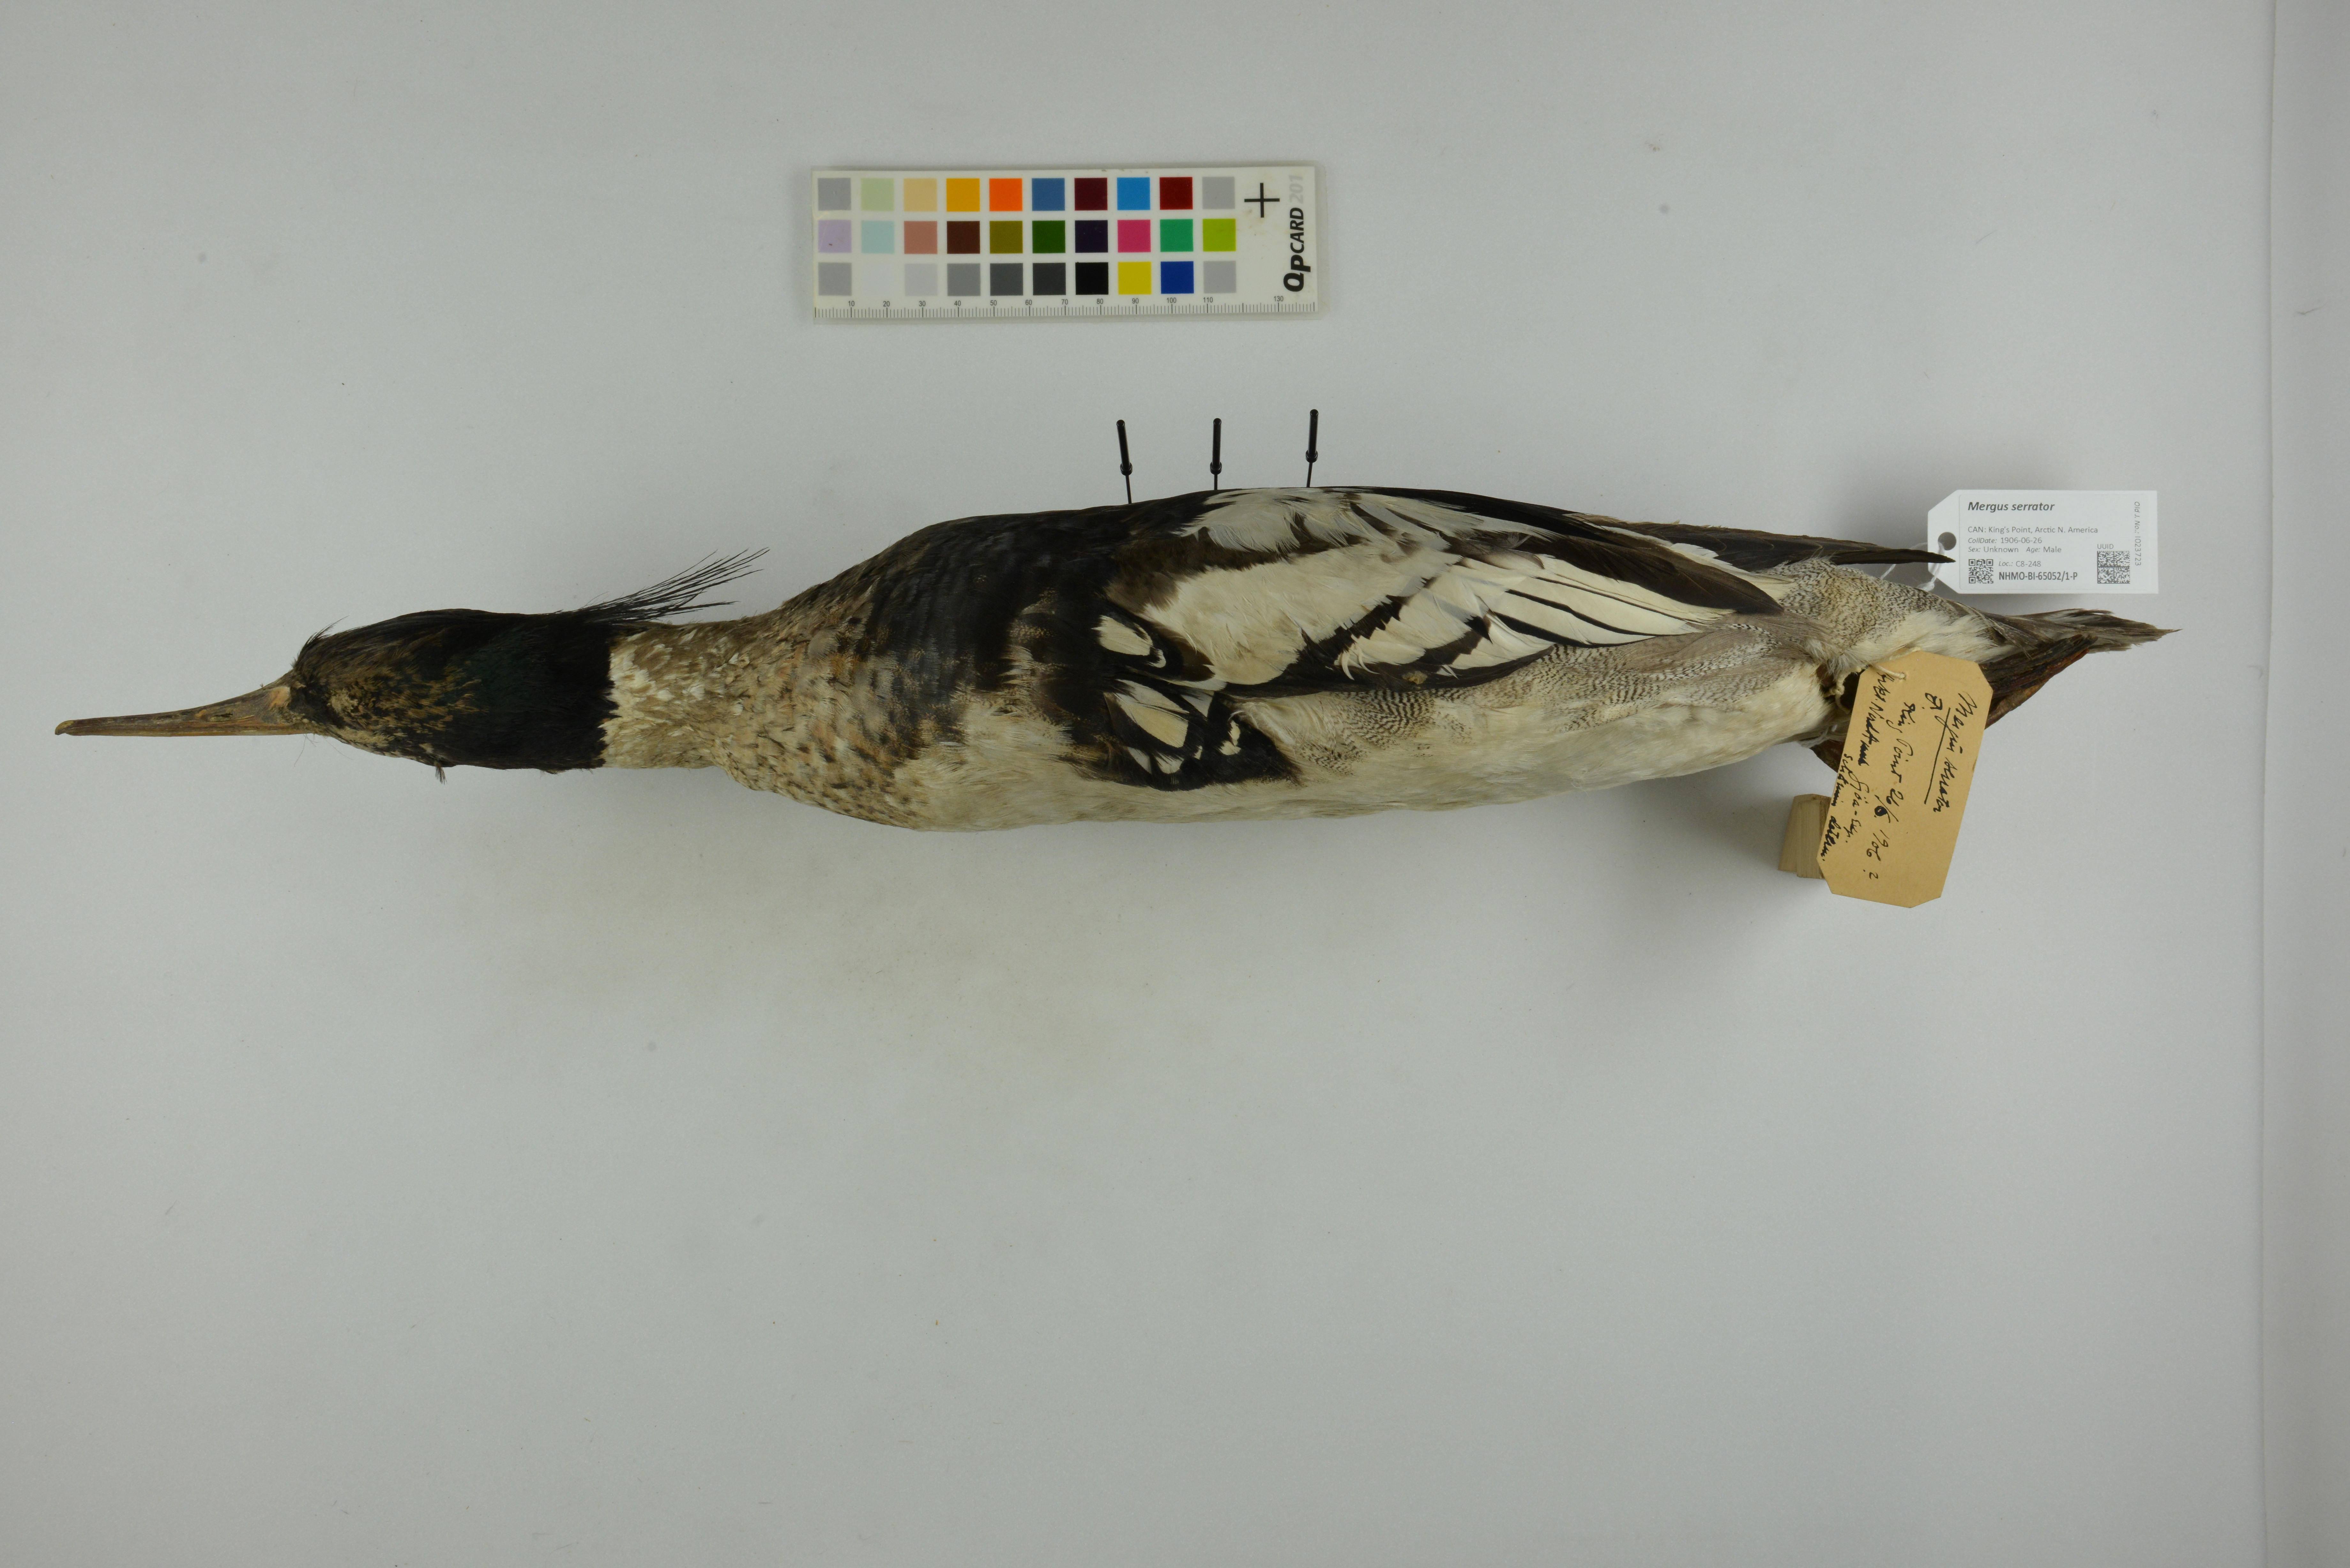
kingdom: Animalia
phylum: Chordata
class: Aves
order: Anseriformes
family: Anatidae
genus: Mergus
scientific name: Mergus serrator
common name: Red-breasted merganser
